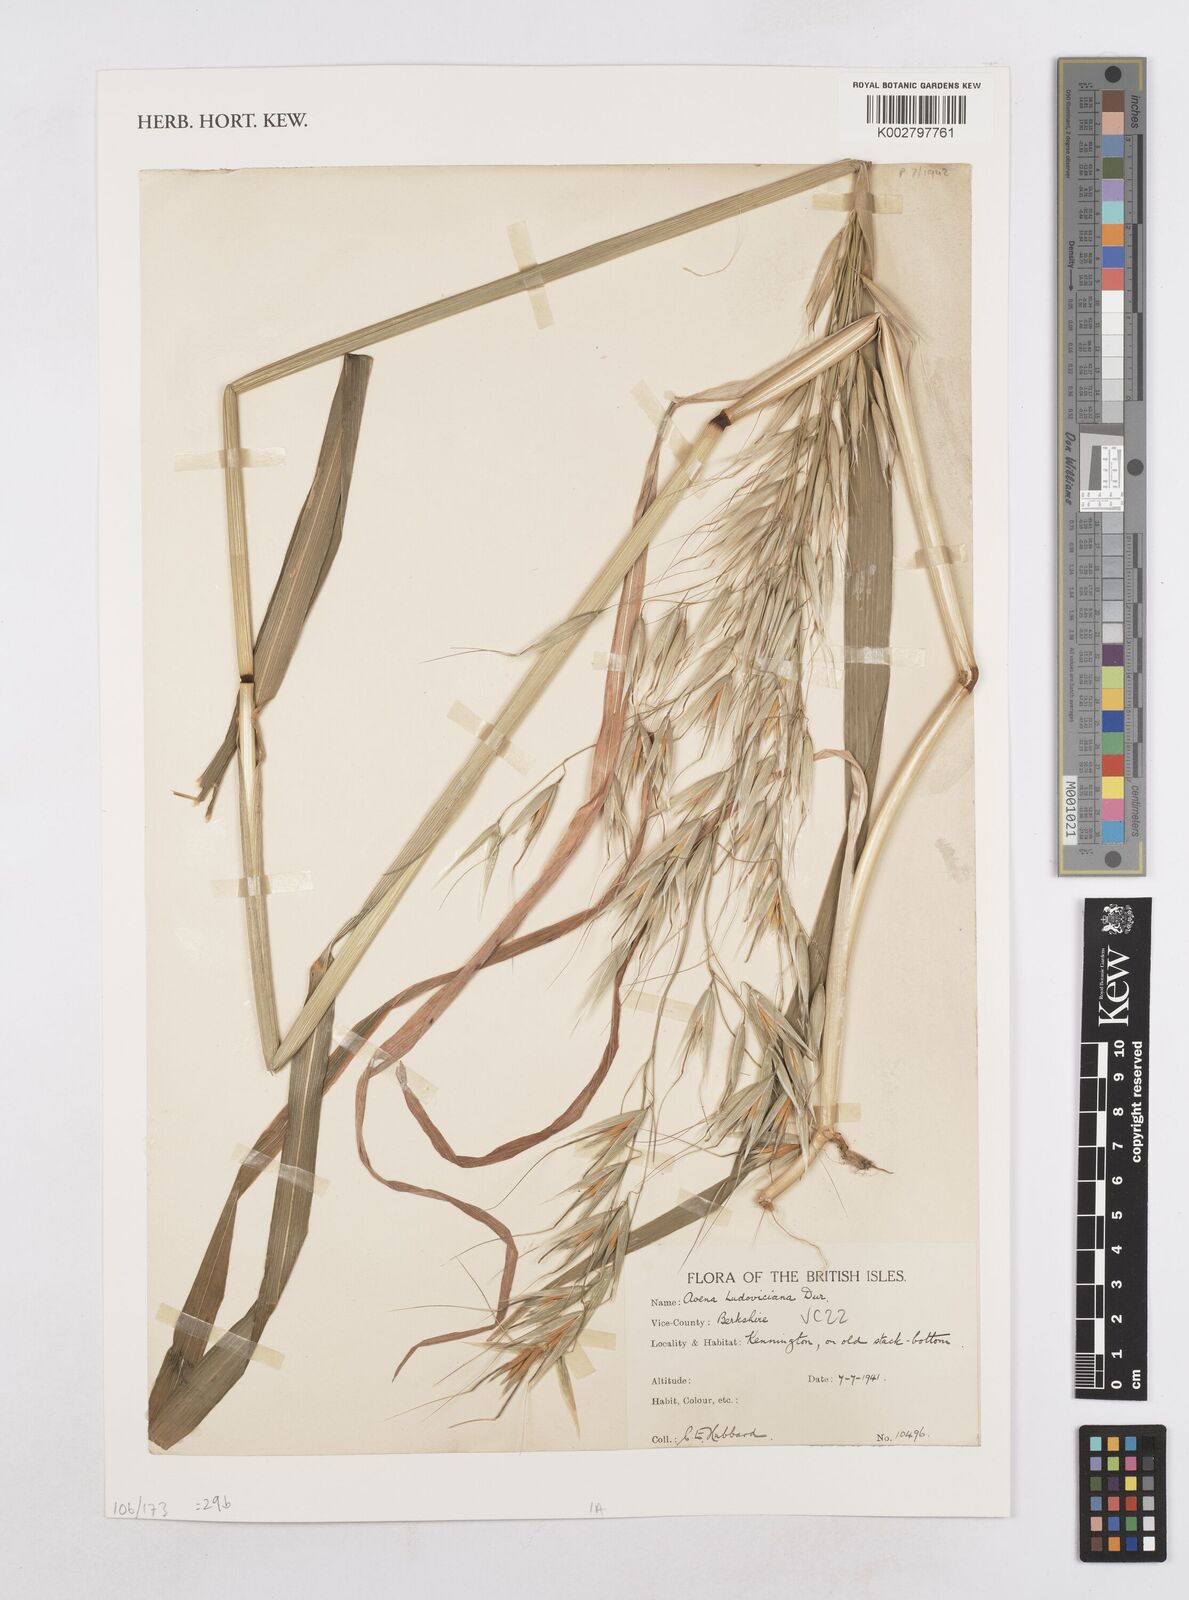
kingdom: Plantae
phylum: Tracheophyta
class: Liliopsida
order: Poales
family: Poaceae
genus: Avena
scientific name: Avena sterilis
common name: Animated oat
